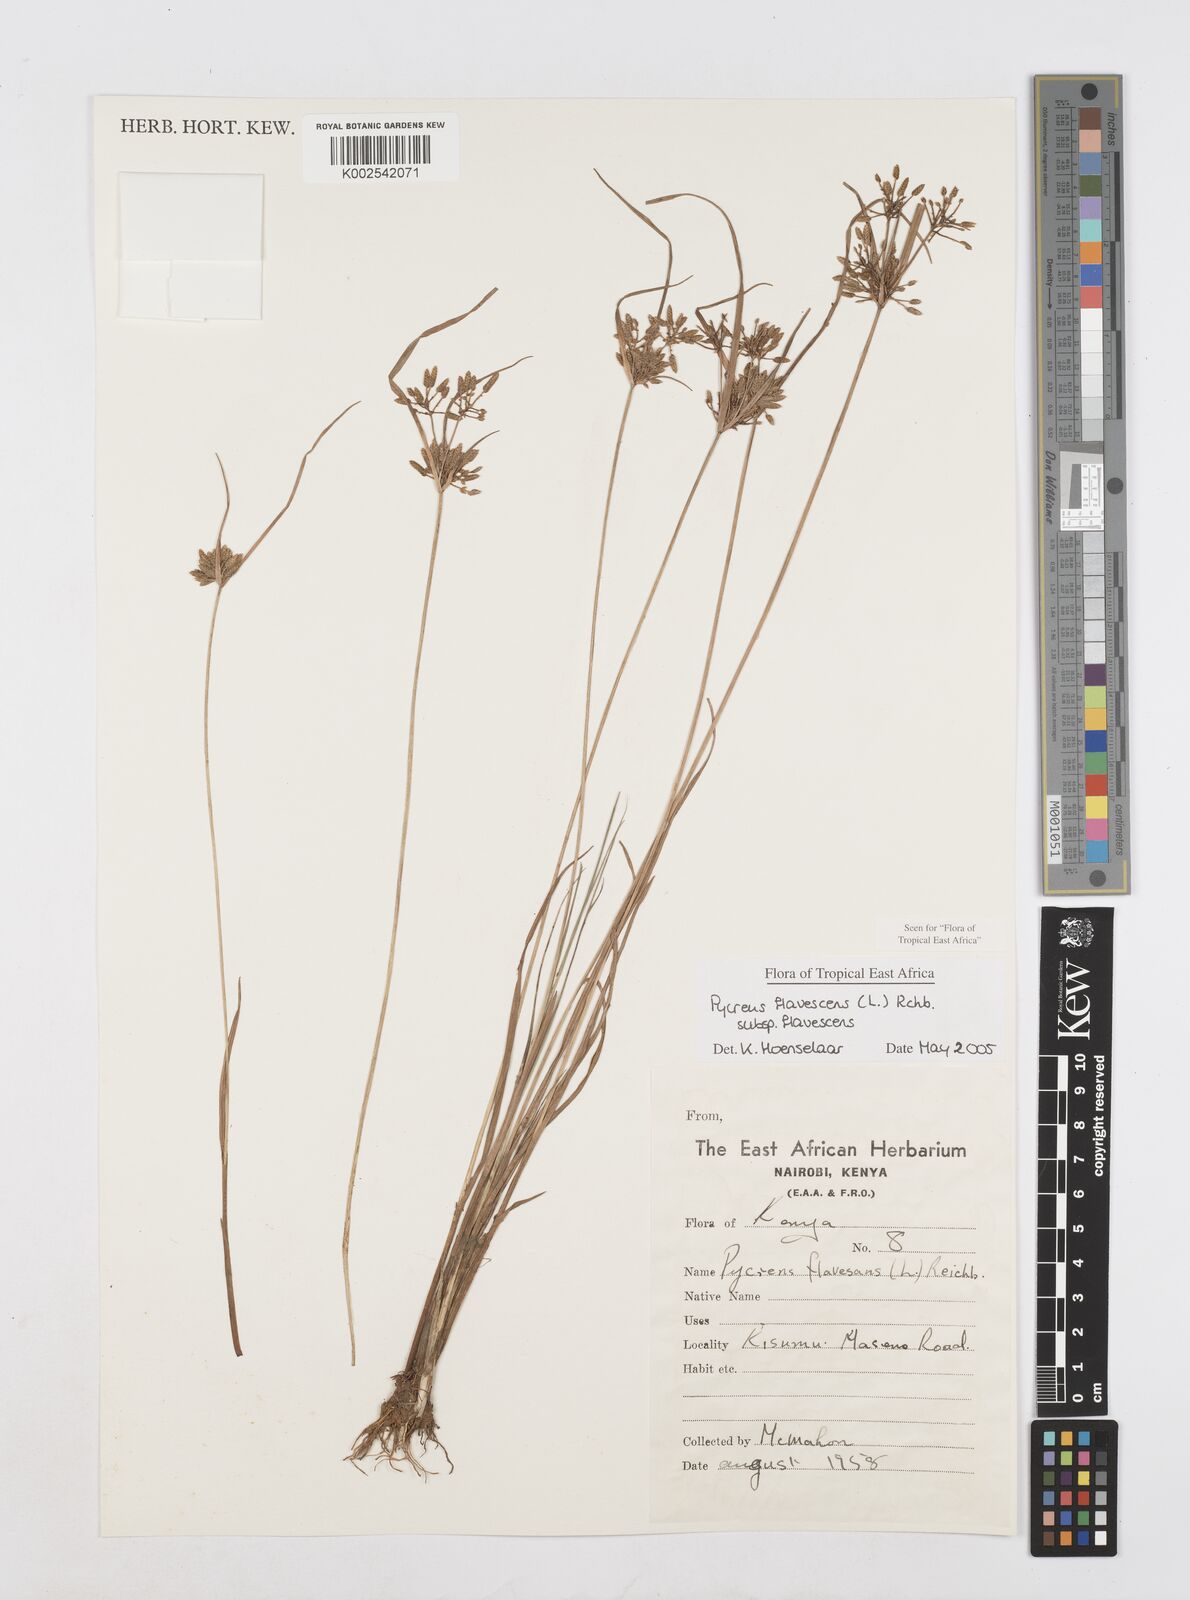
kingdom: Plantae
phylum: Tracheophyta
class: Liliopsida
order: Poales
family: Cyperaceae
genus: Cyperus
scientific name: Cyperus flavescens
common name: Yellow galingale
